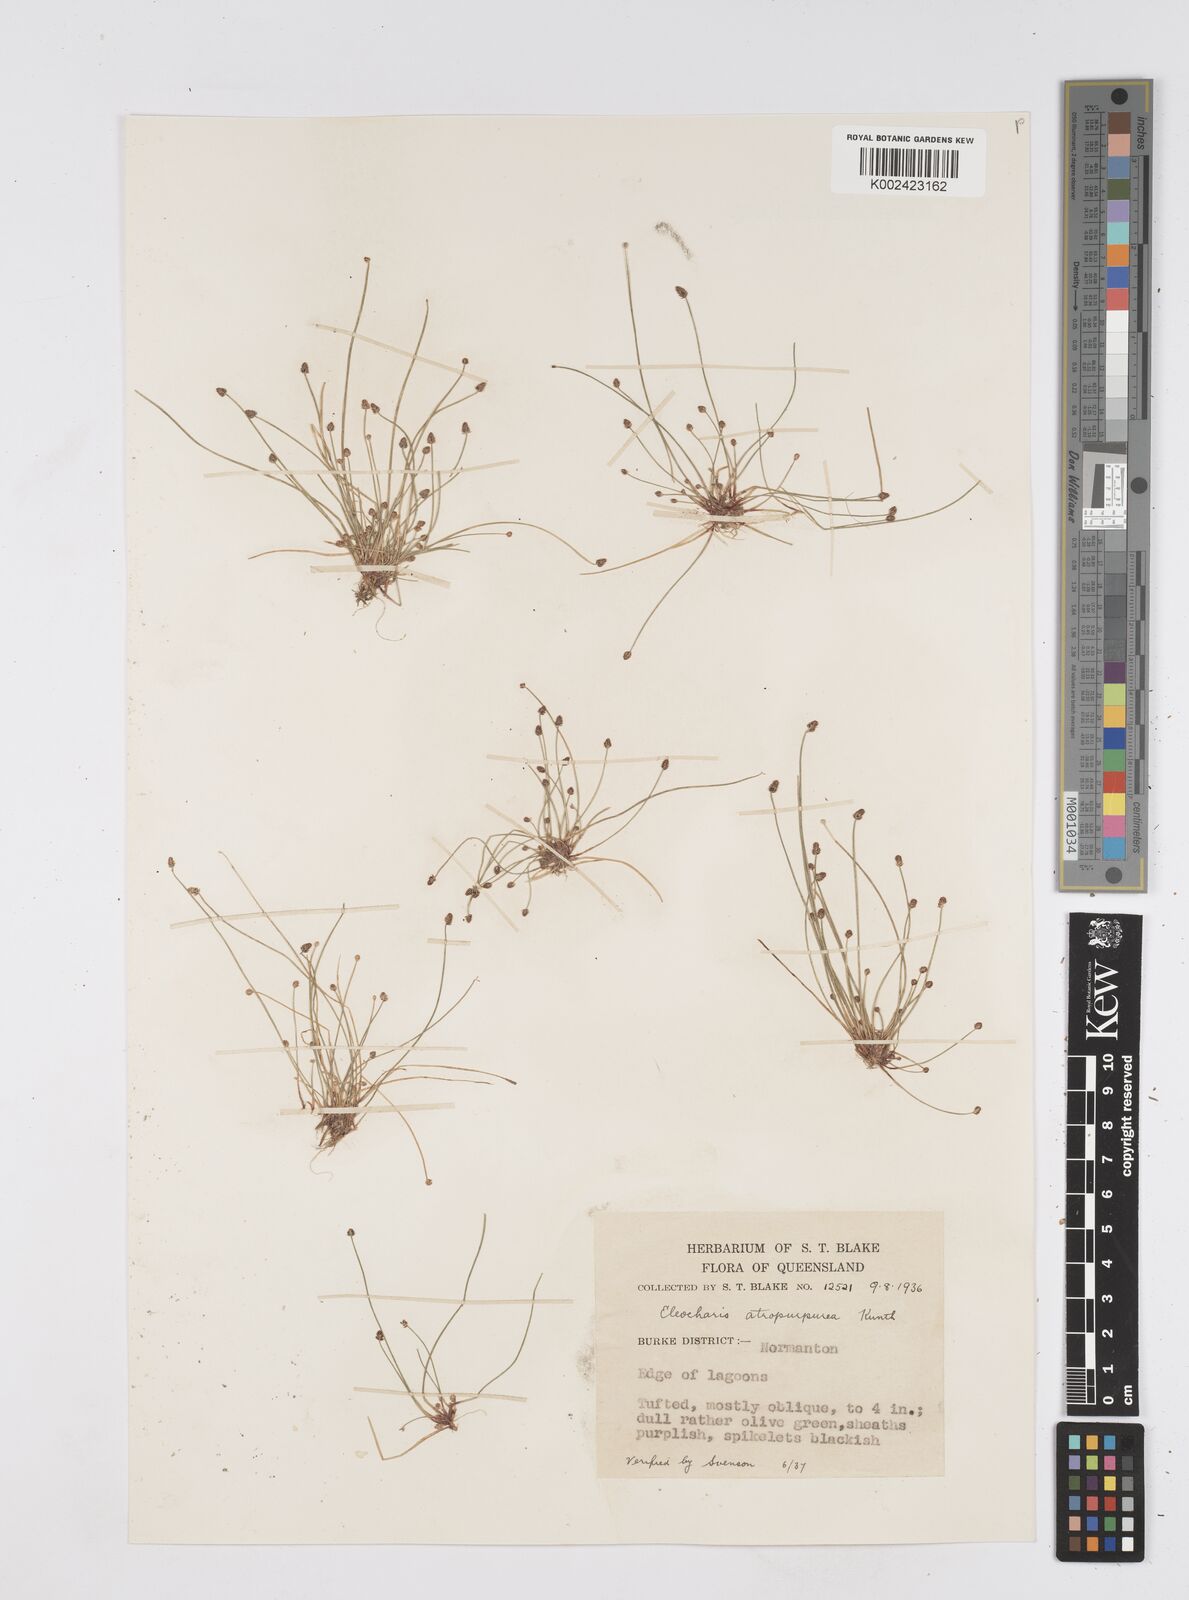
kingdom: Plantae
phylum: Tracheophyta
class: Liliopsida
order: Poales
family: Cyperaceae
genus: Eleocharis
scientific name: Eleocharis atropurpurea
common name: Purple spikerush
